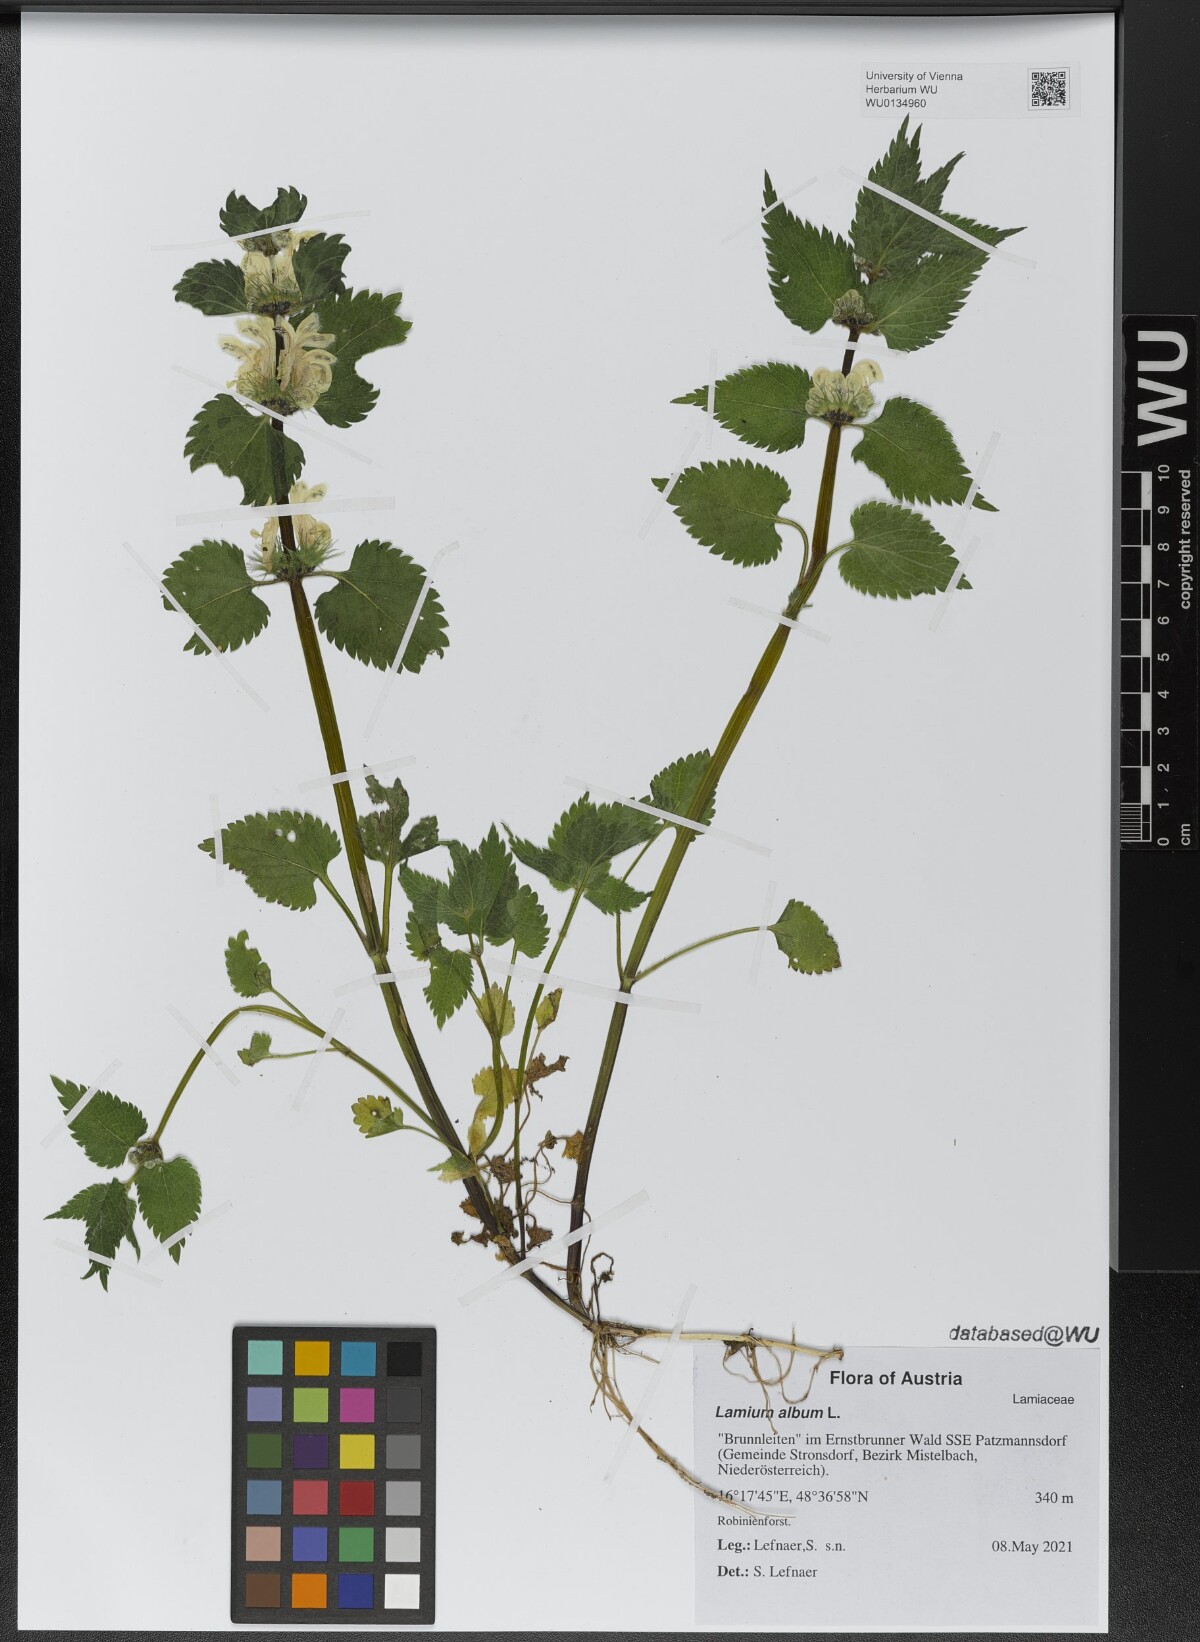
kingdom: Plantae
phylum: Tracheophyta
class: Magnoliopsida
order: Lamiales
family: Lamiaceae
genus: Lamium
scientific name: Lamium album
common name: White dead-nettle
